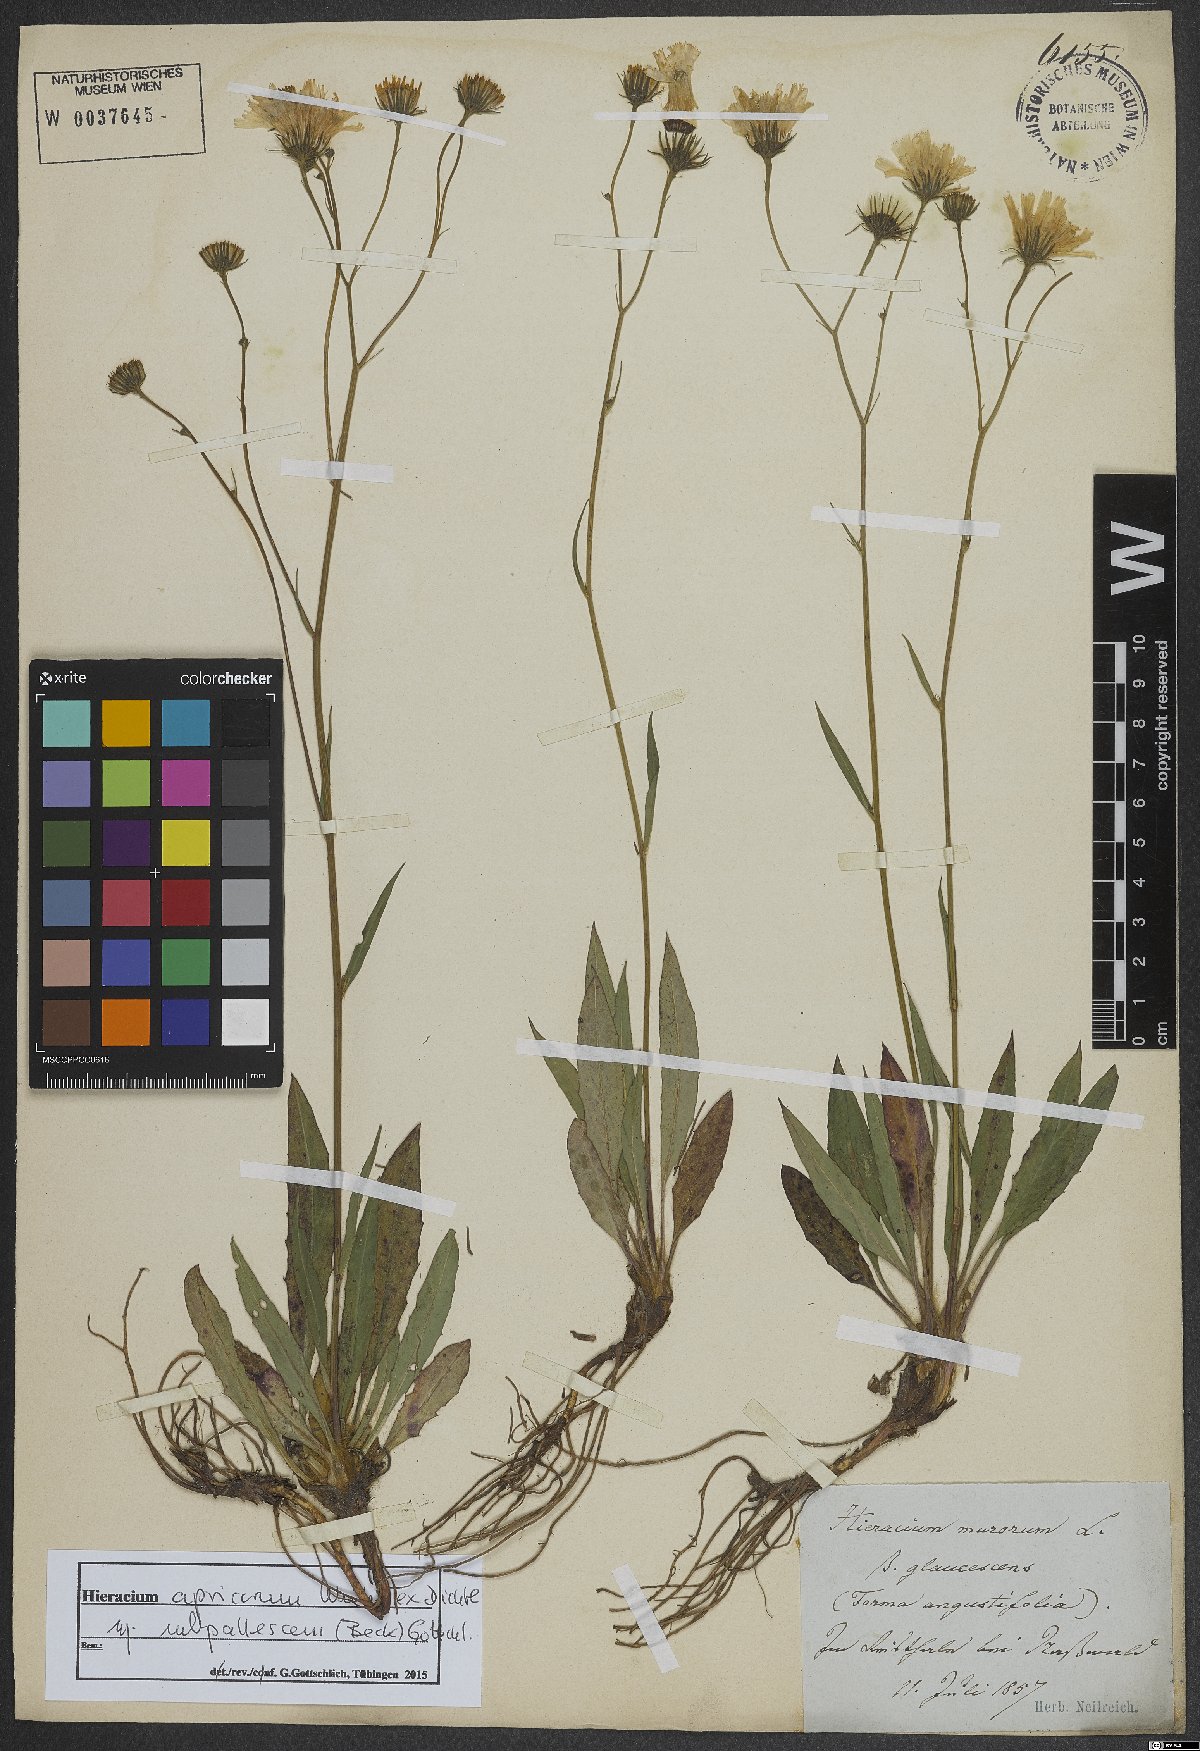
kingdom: Plantae
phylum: Tracheophyta
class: Magnoliopsida
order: Asterales
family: Asteraceae
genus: Hieracium
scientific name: Hieracium apricorum
